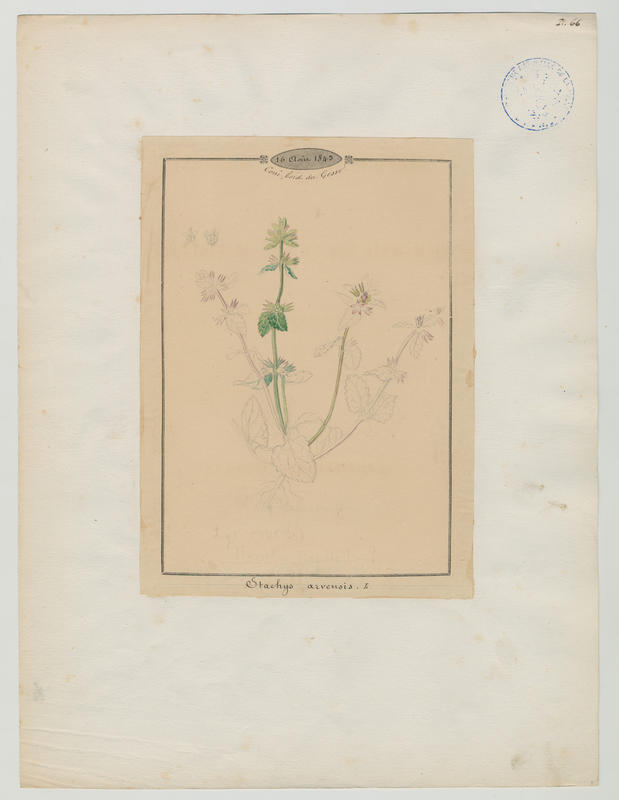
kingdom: Plantae
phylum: Tracheophyta
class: Magnoliopsida
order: Lamiales
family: Lamiaceae
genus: Stachys
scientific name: Stachys arvensis
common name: Field woundwort
